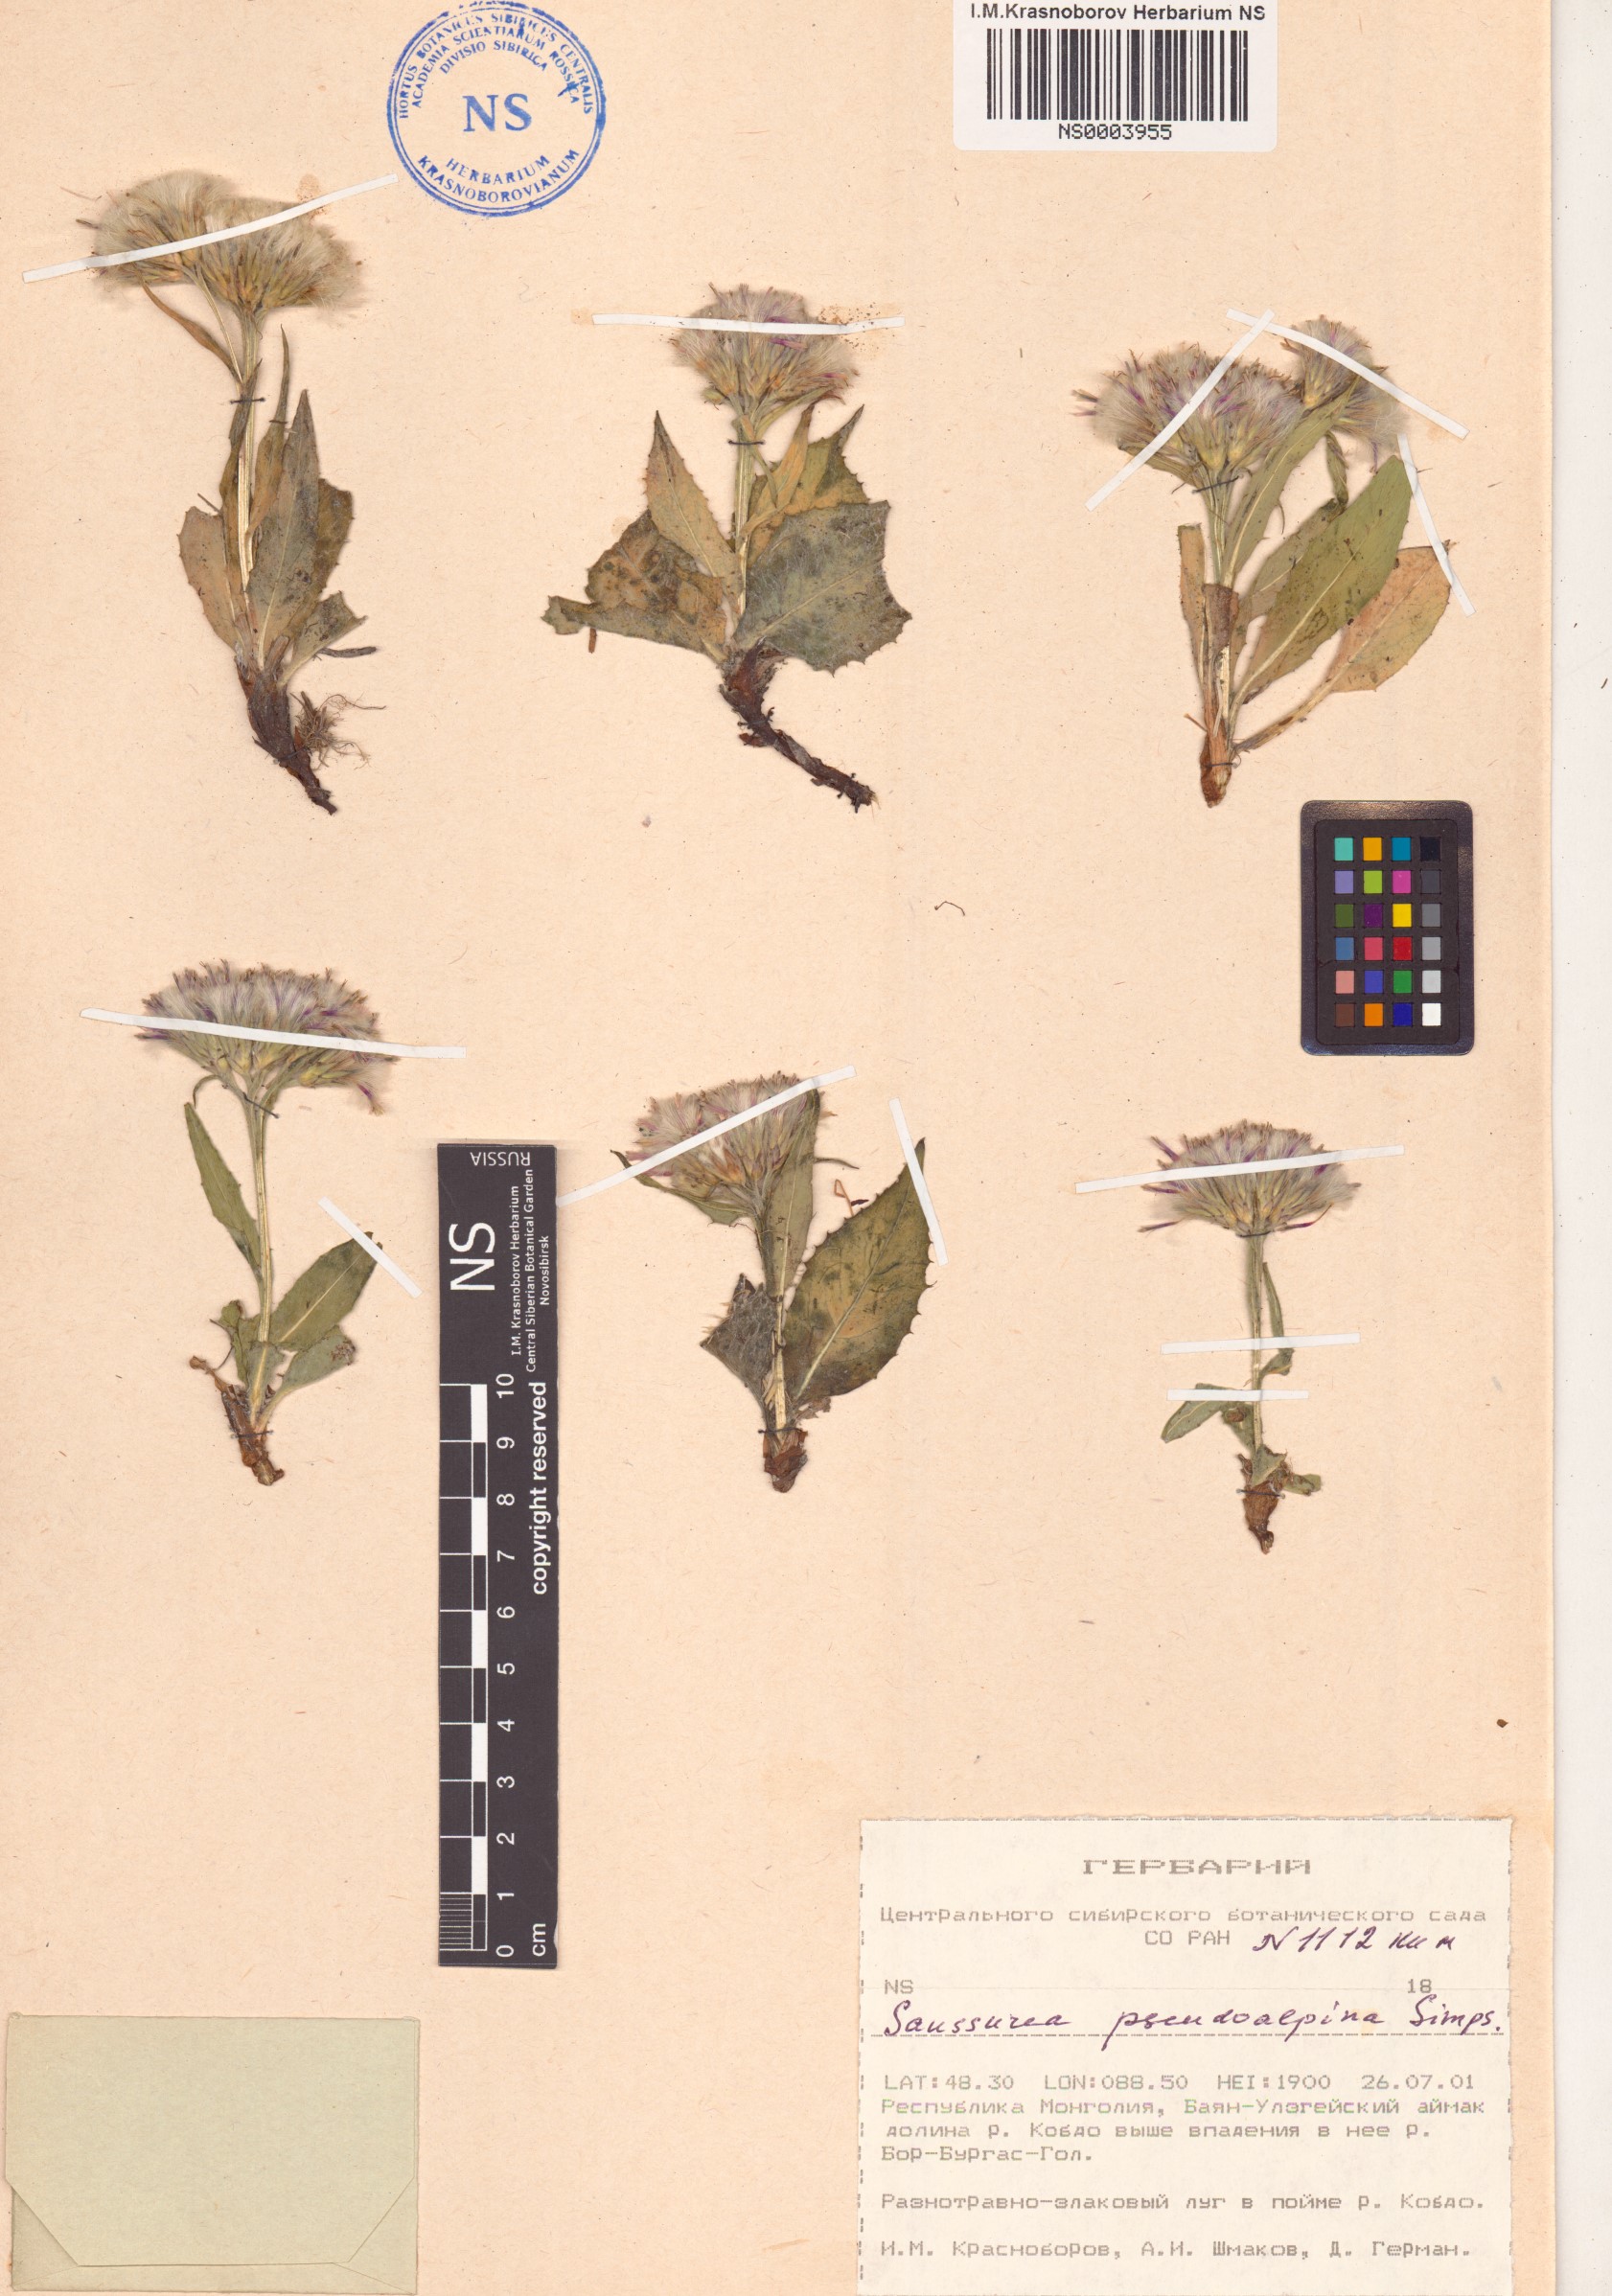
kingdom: Plantae
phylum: Tracheophyta
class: Magnoliopsida
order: Asterales
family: Asteraceae
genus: Saussurea
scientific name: Saussurea pseudoalpina
